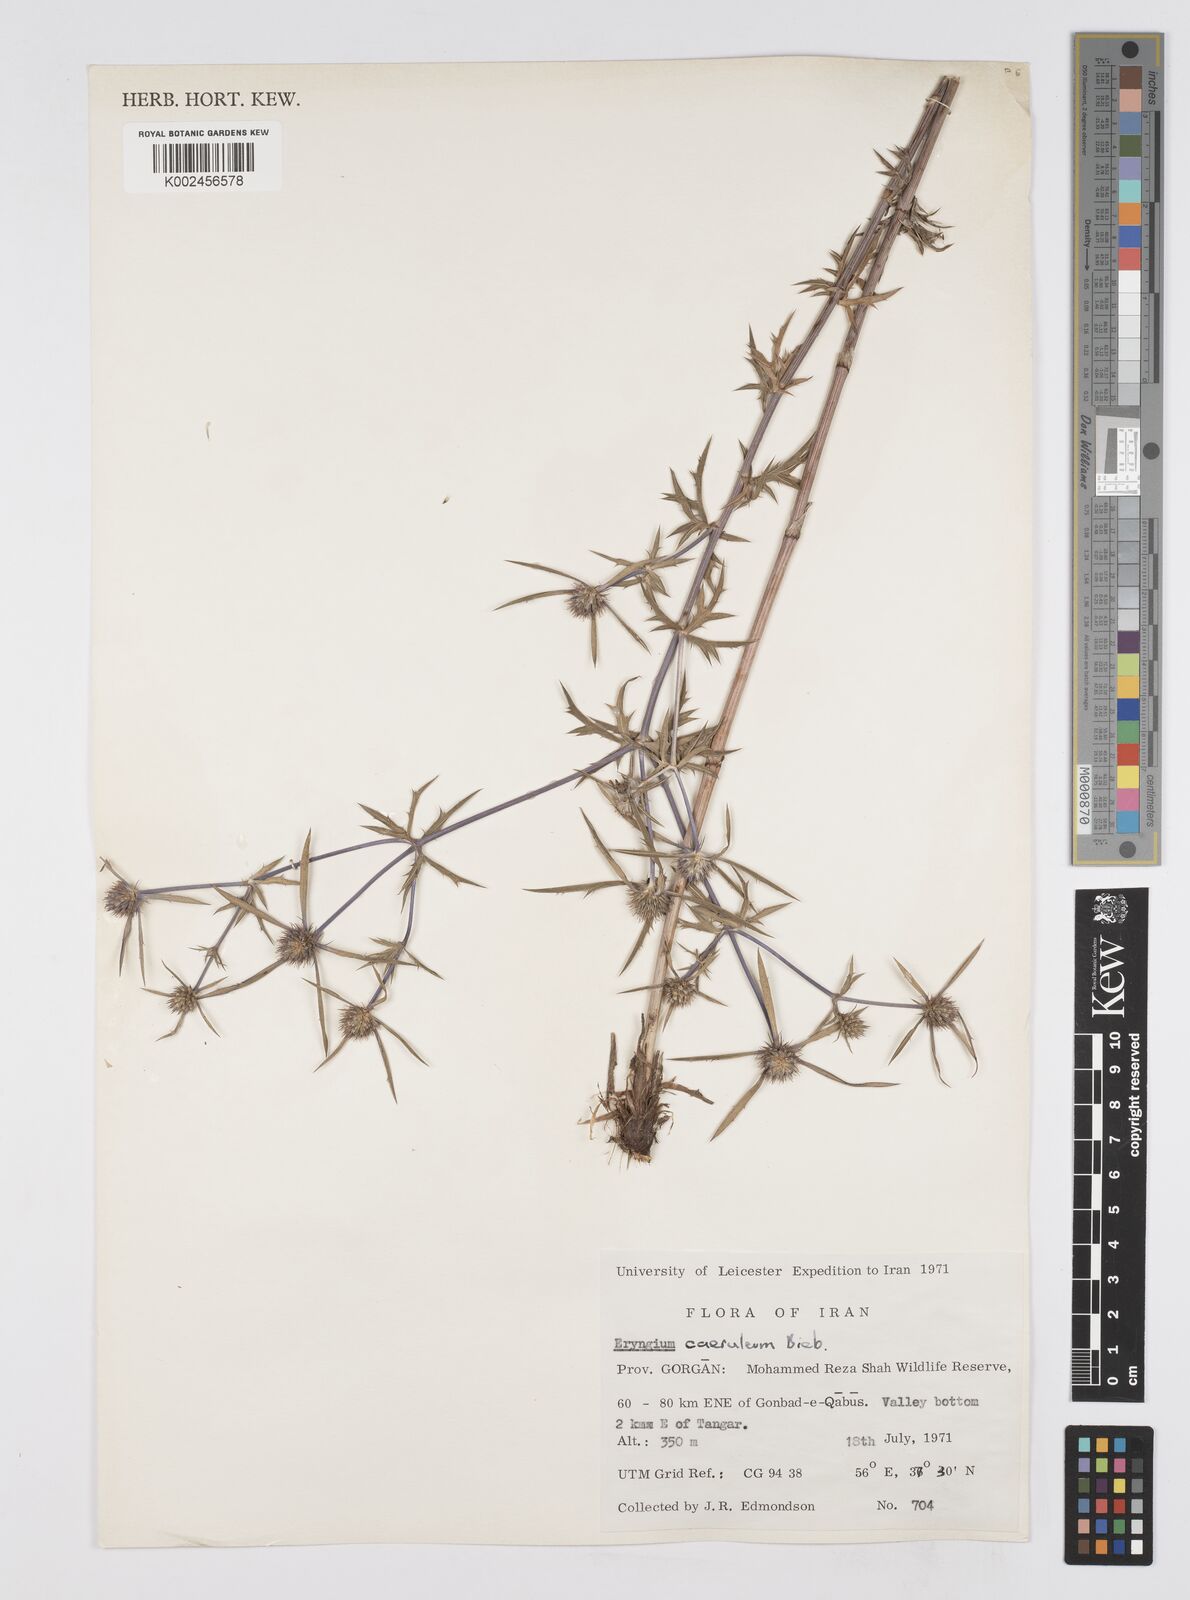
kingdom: Plantae
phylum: Tracheophyta
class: Magnoliopsida
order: Apiales
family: Apiaceae
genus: Eryngium
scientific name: Eryngium caeruleum
